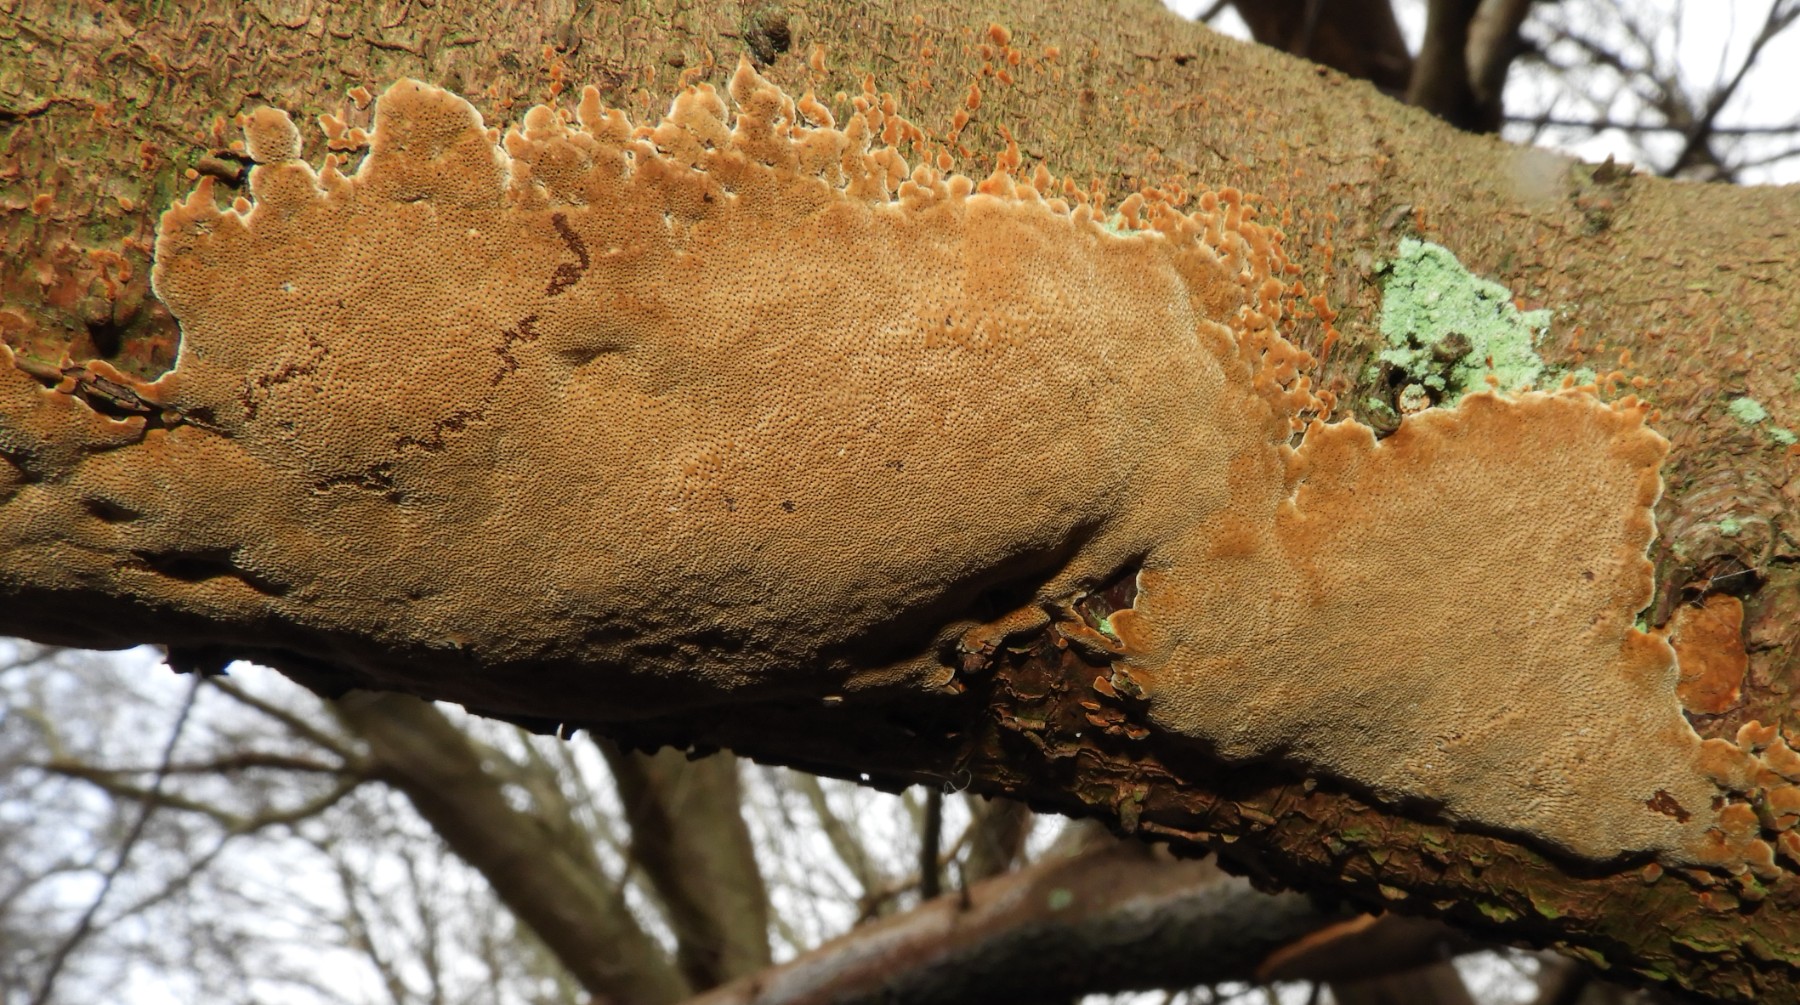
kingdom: Fungi
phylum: Basidiomycota
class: Agaricomycetes
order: Hymenochaetales
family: Hymenochaetaceae
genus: Phellinus
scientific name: Phellinus pomaceus
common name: blomme-ildporesvamp
